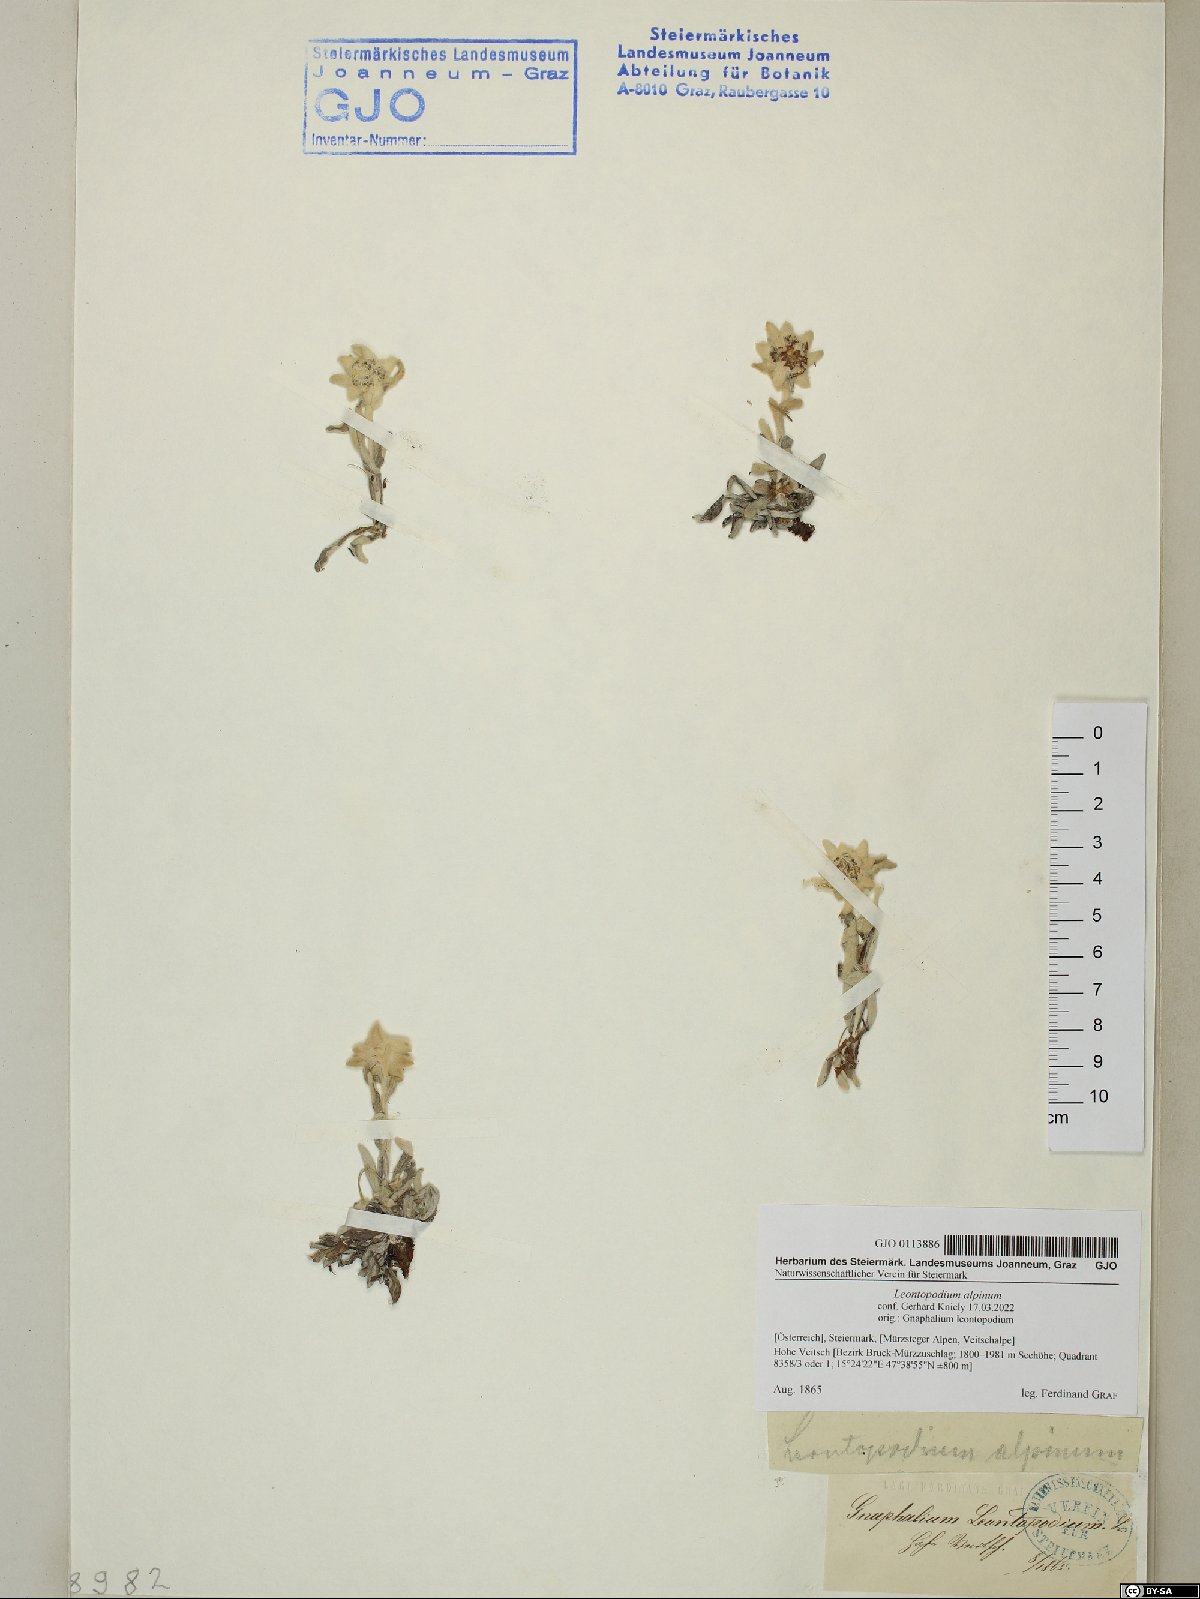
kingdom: Plantae
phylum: Tracheophyta
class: Magnoliopsida
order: Asterales
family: Asteraceae
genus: Leontopodium
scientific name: Leontopodium nivale
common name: Edelweiss
